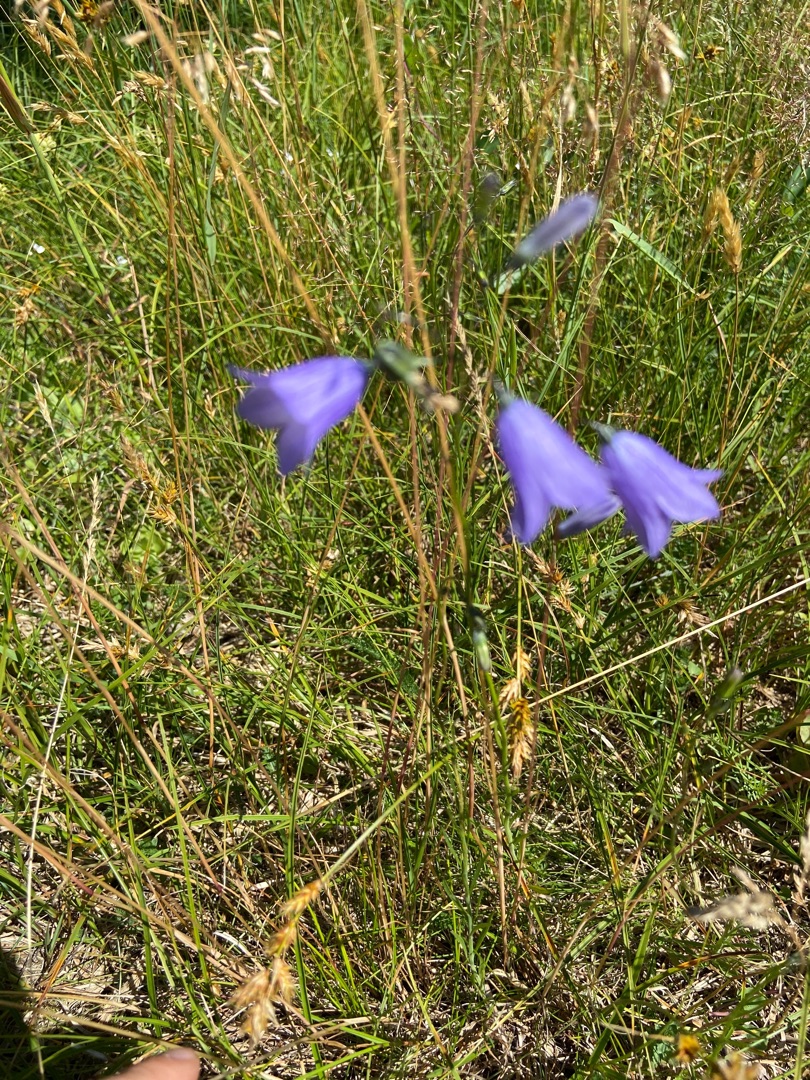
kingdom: Plantae
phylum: Tracheophyta
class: Magnoliopsida
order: Asterales
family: Campanulaceae
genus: Campanula
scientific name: Campanula rotundifolia
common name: Liden klokke
